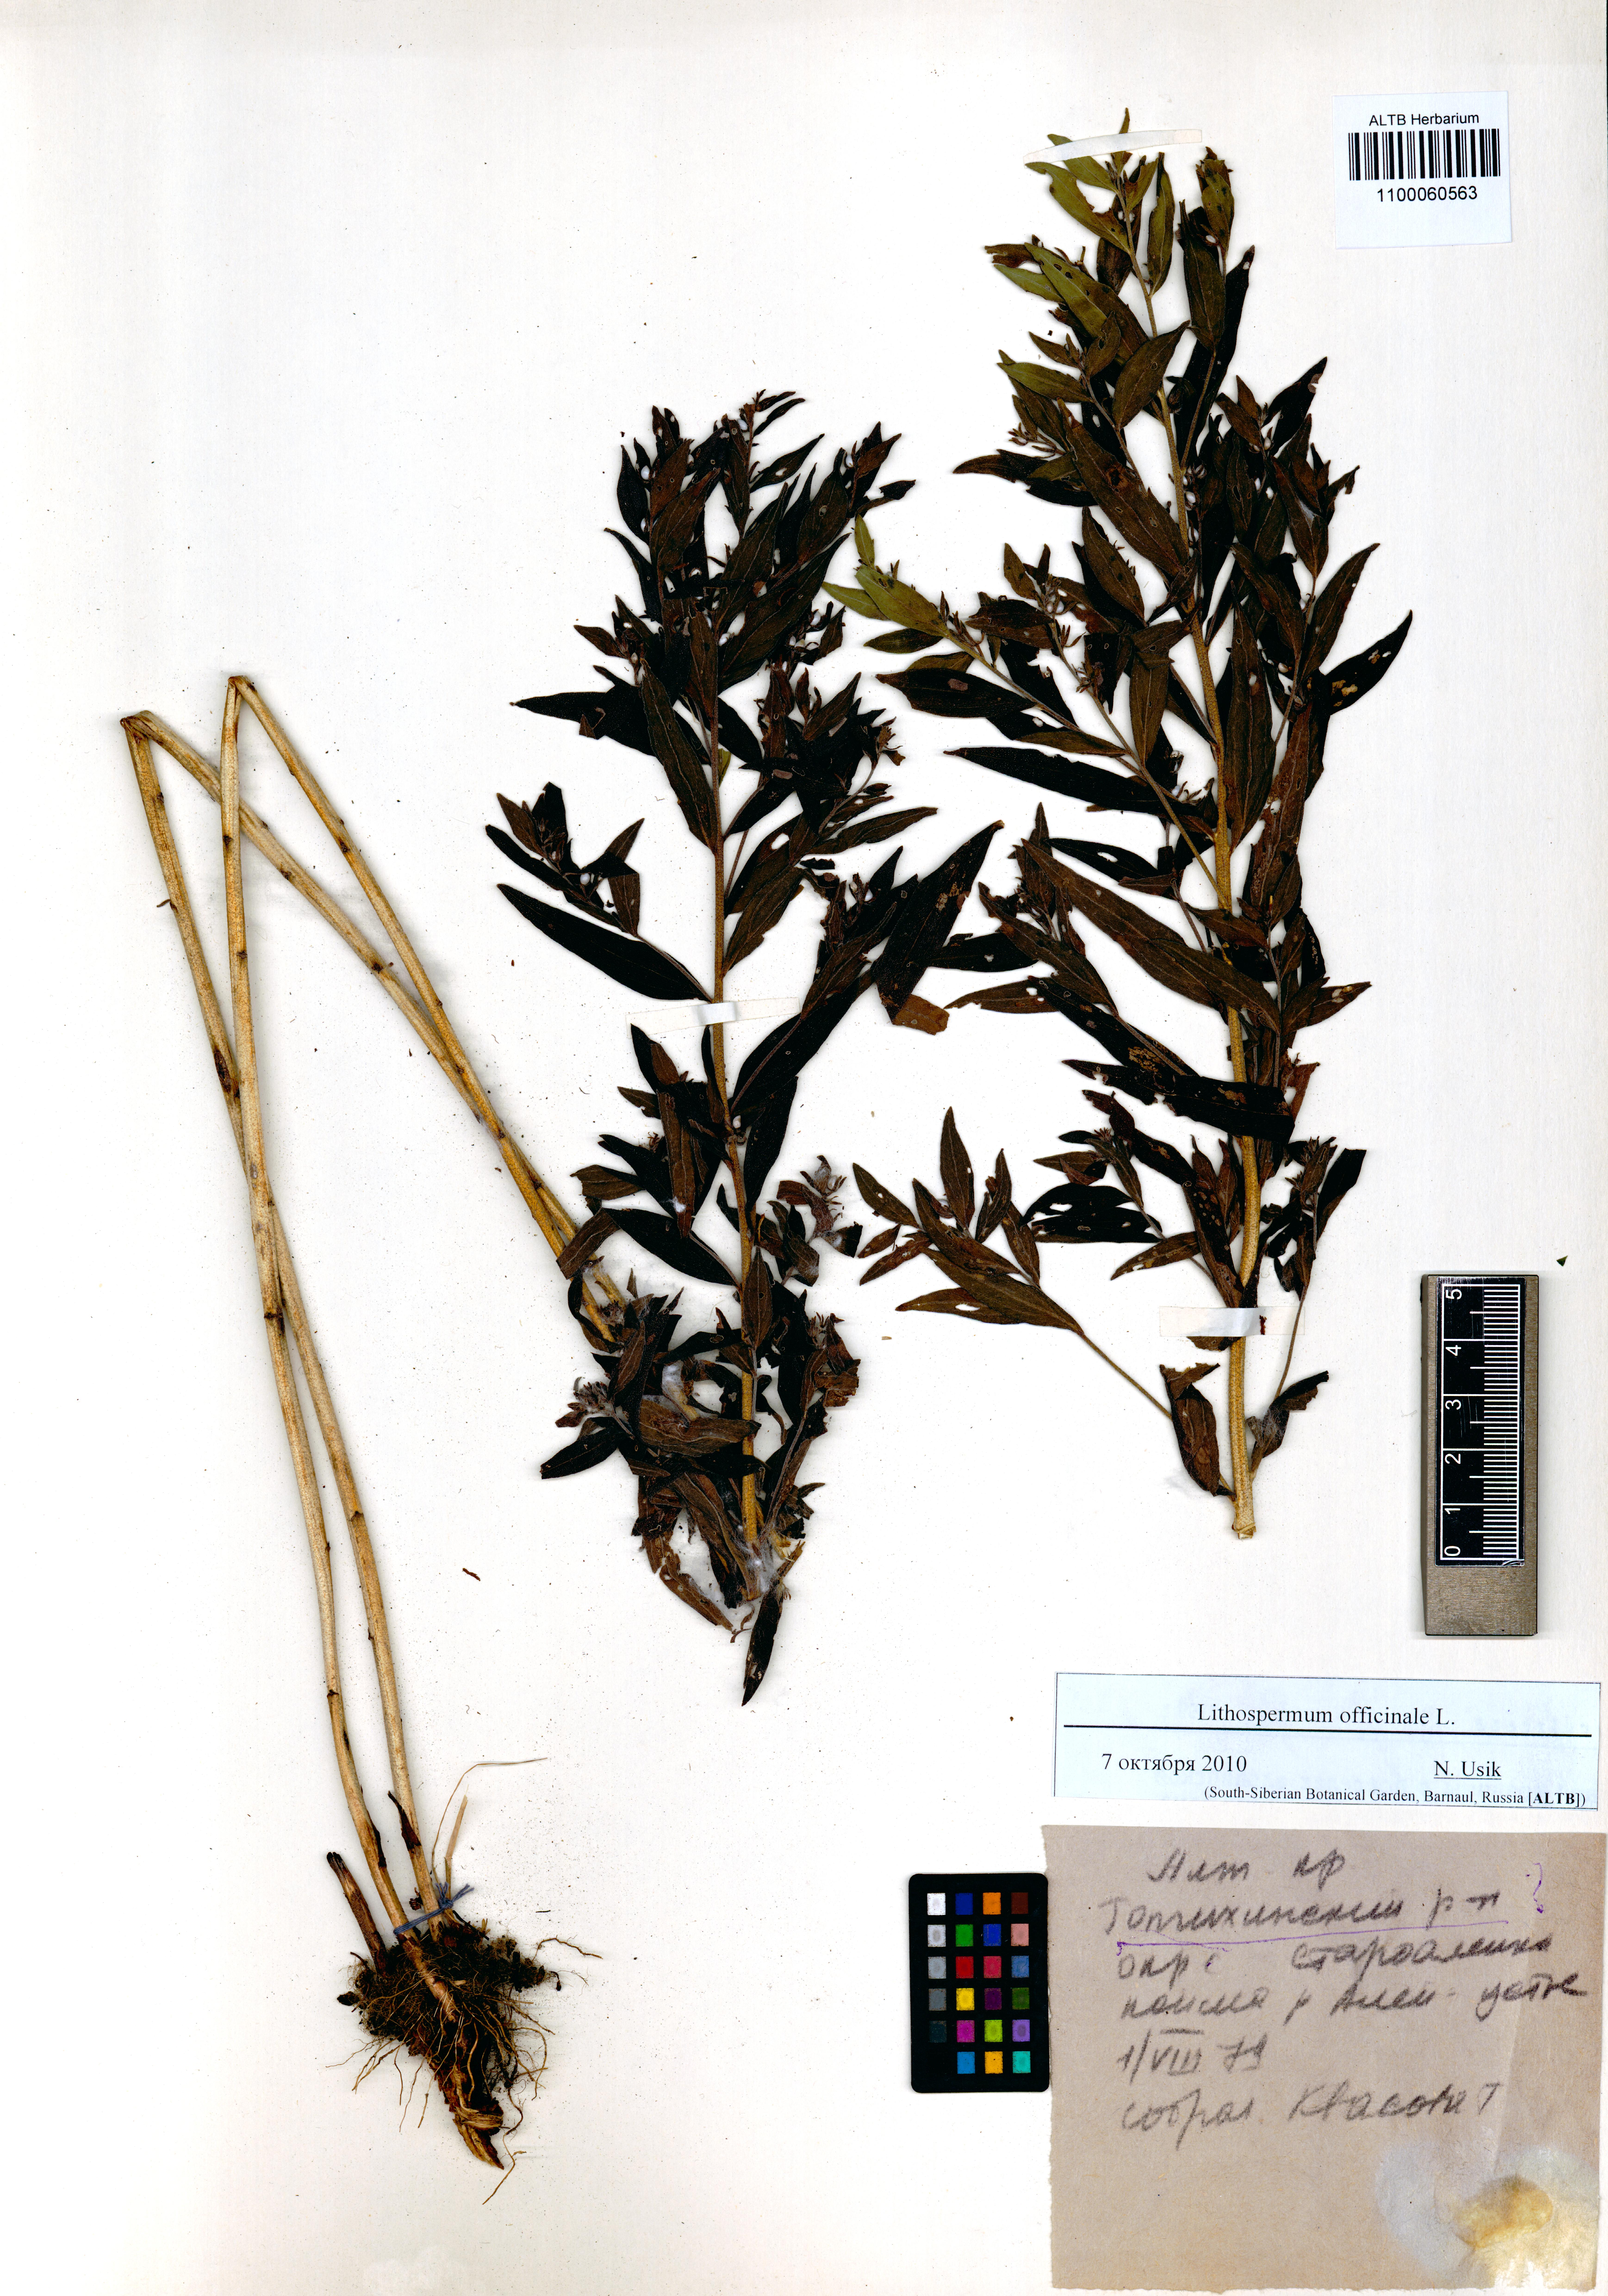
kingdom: Plantae
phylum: Tracheophyta
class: Magnoliopsida
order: Boraginales
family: Boraginaceae
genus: Lithospermum
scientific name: Lithospermum officinale
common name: Common gromwell
